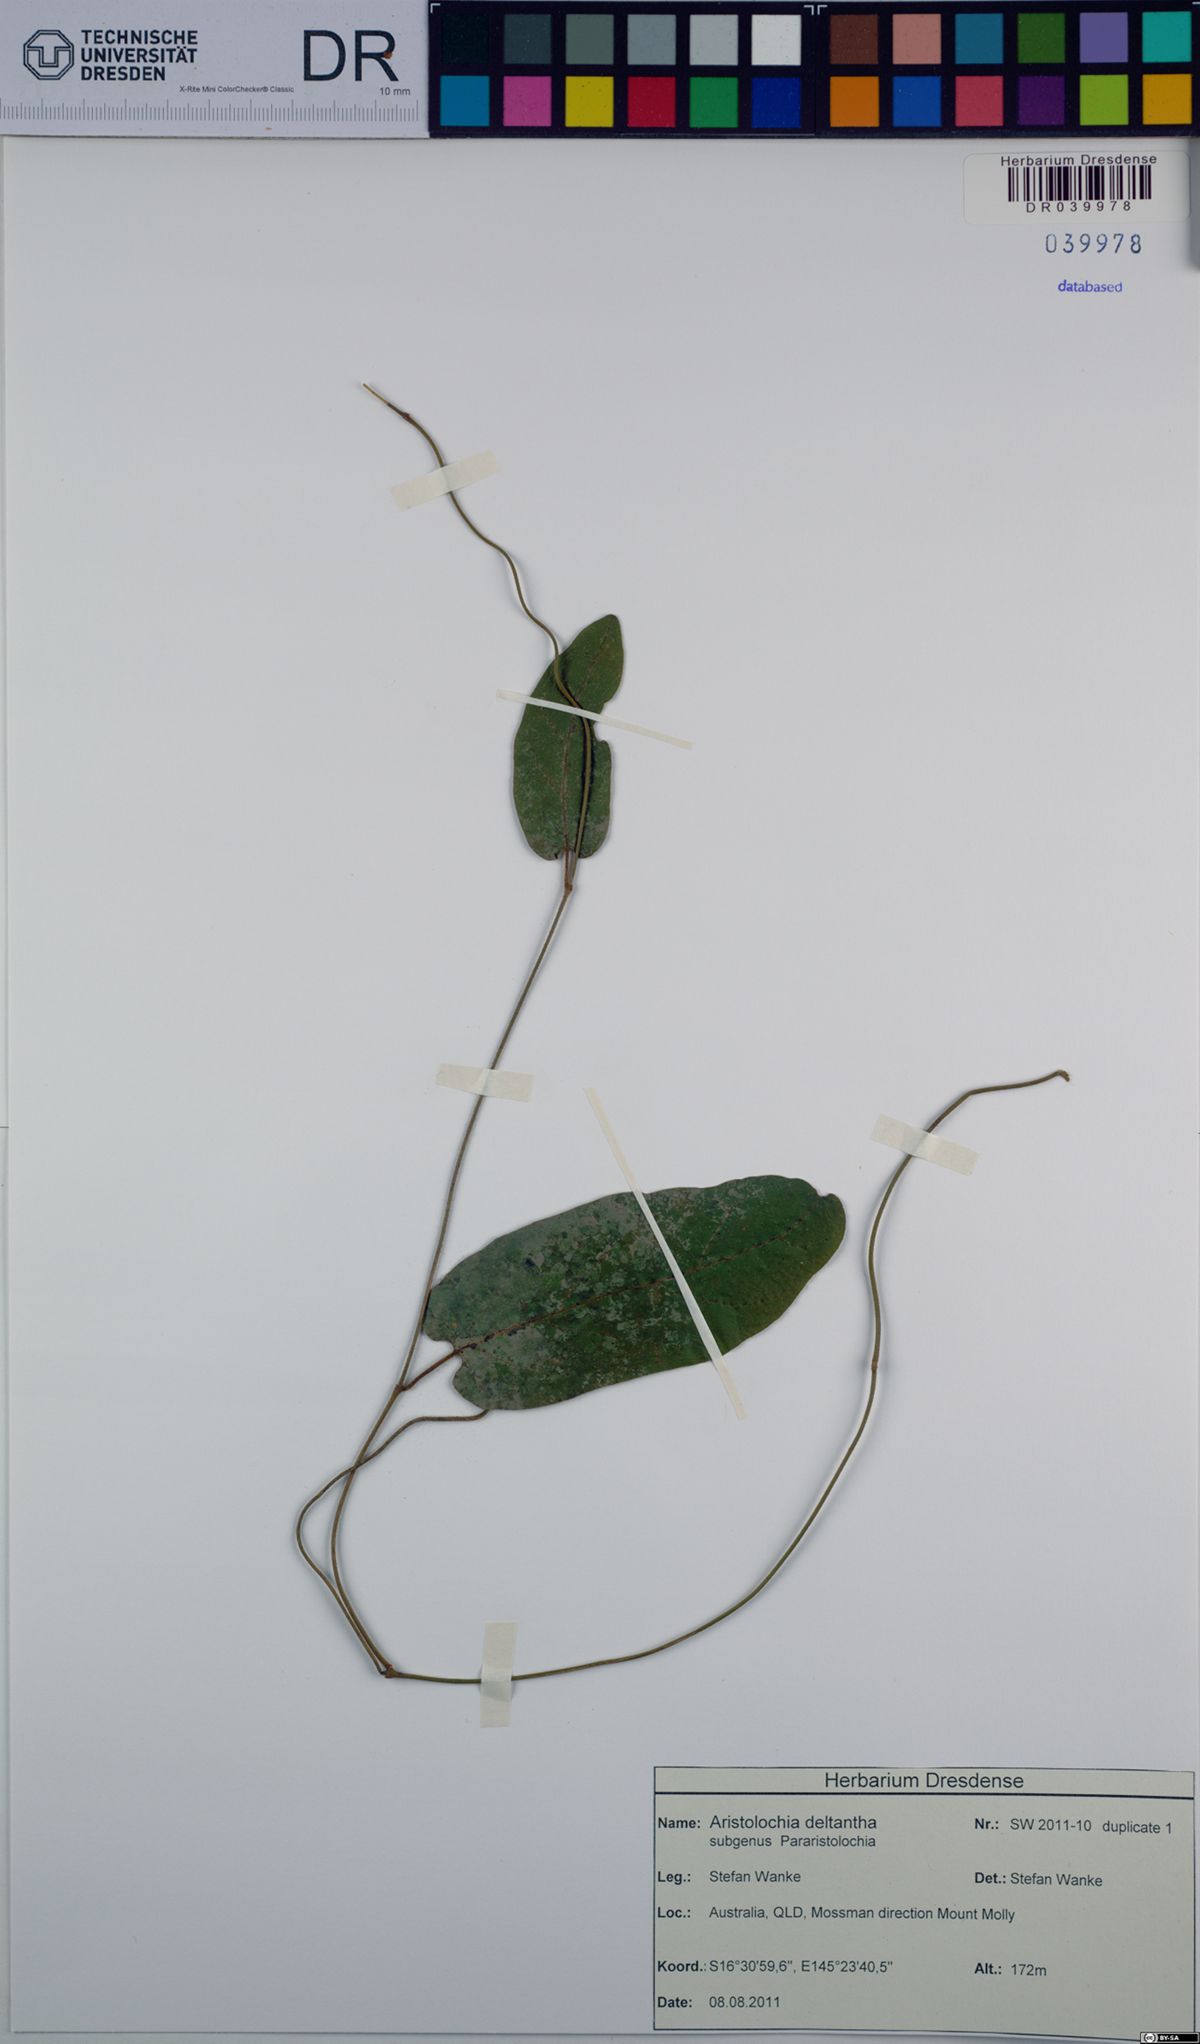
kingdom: Plantae
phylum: Tracheophyta
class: Magnoliopsida
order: Piperales
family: Aristolochiaceae
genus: Aristolochia
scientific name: Aristolochia deltantha
